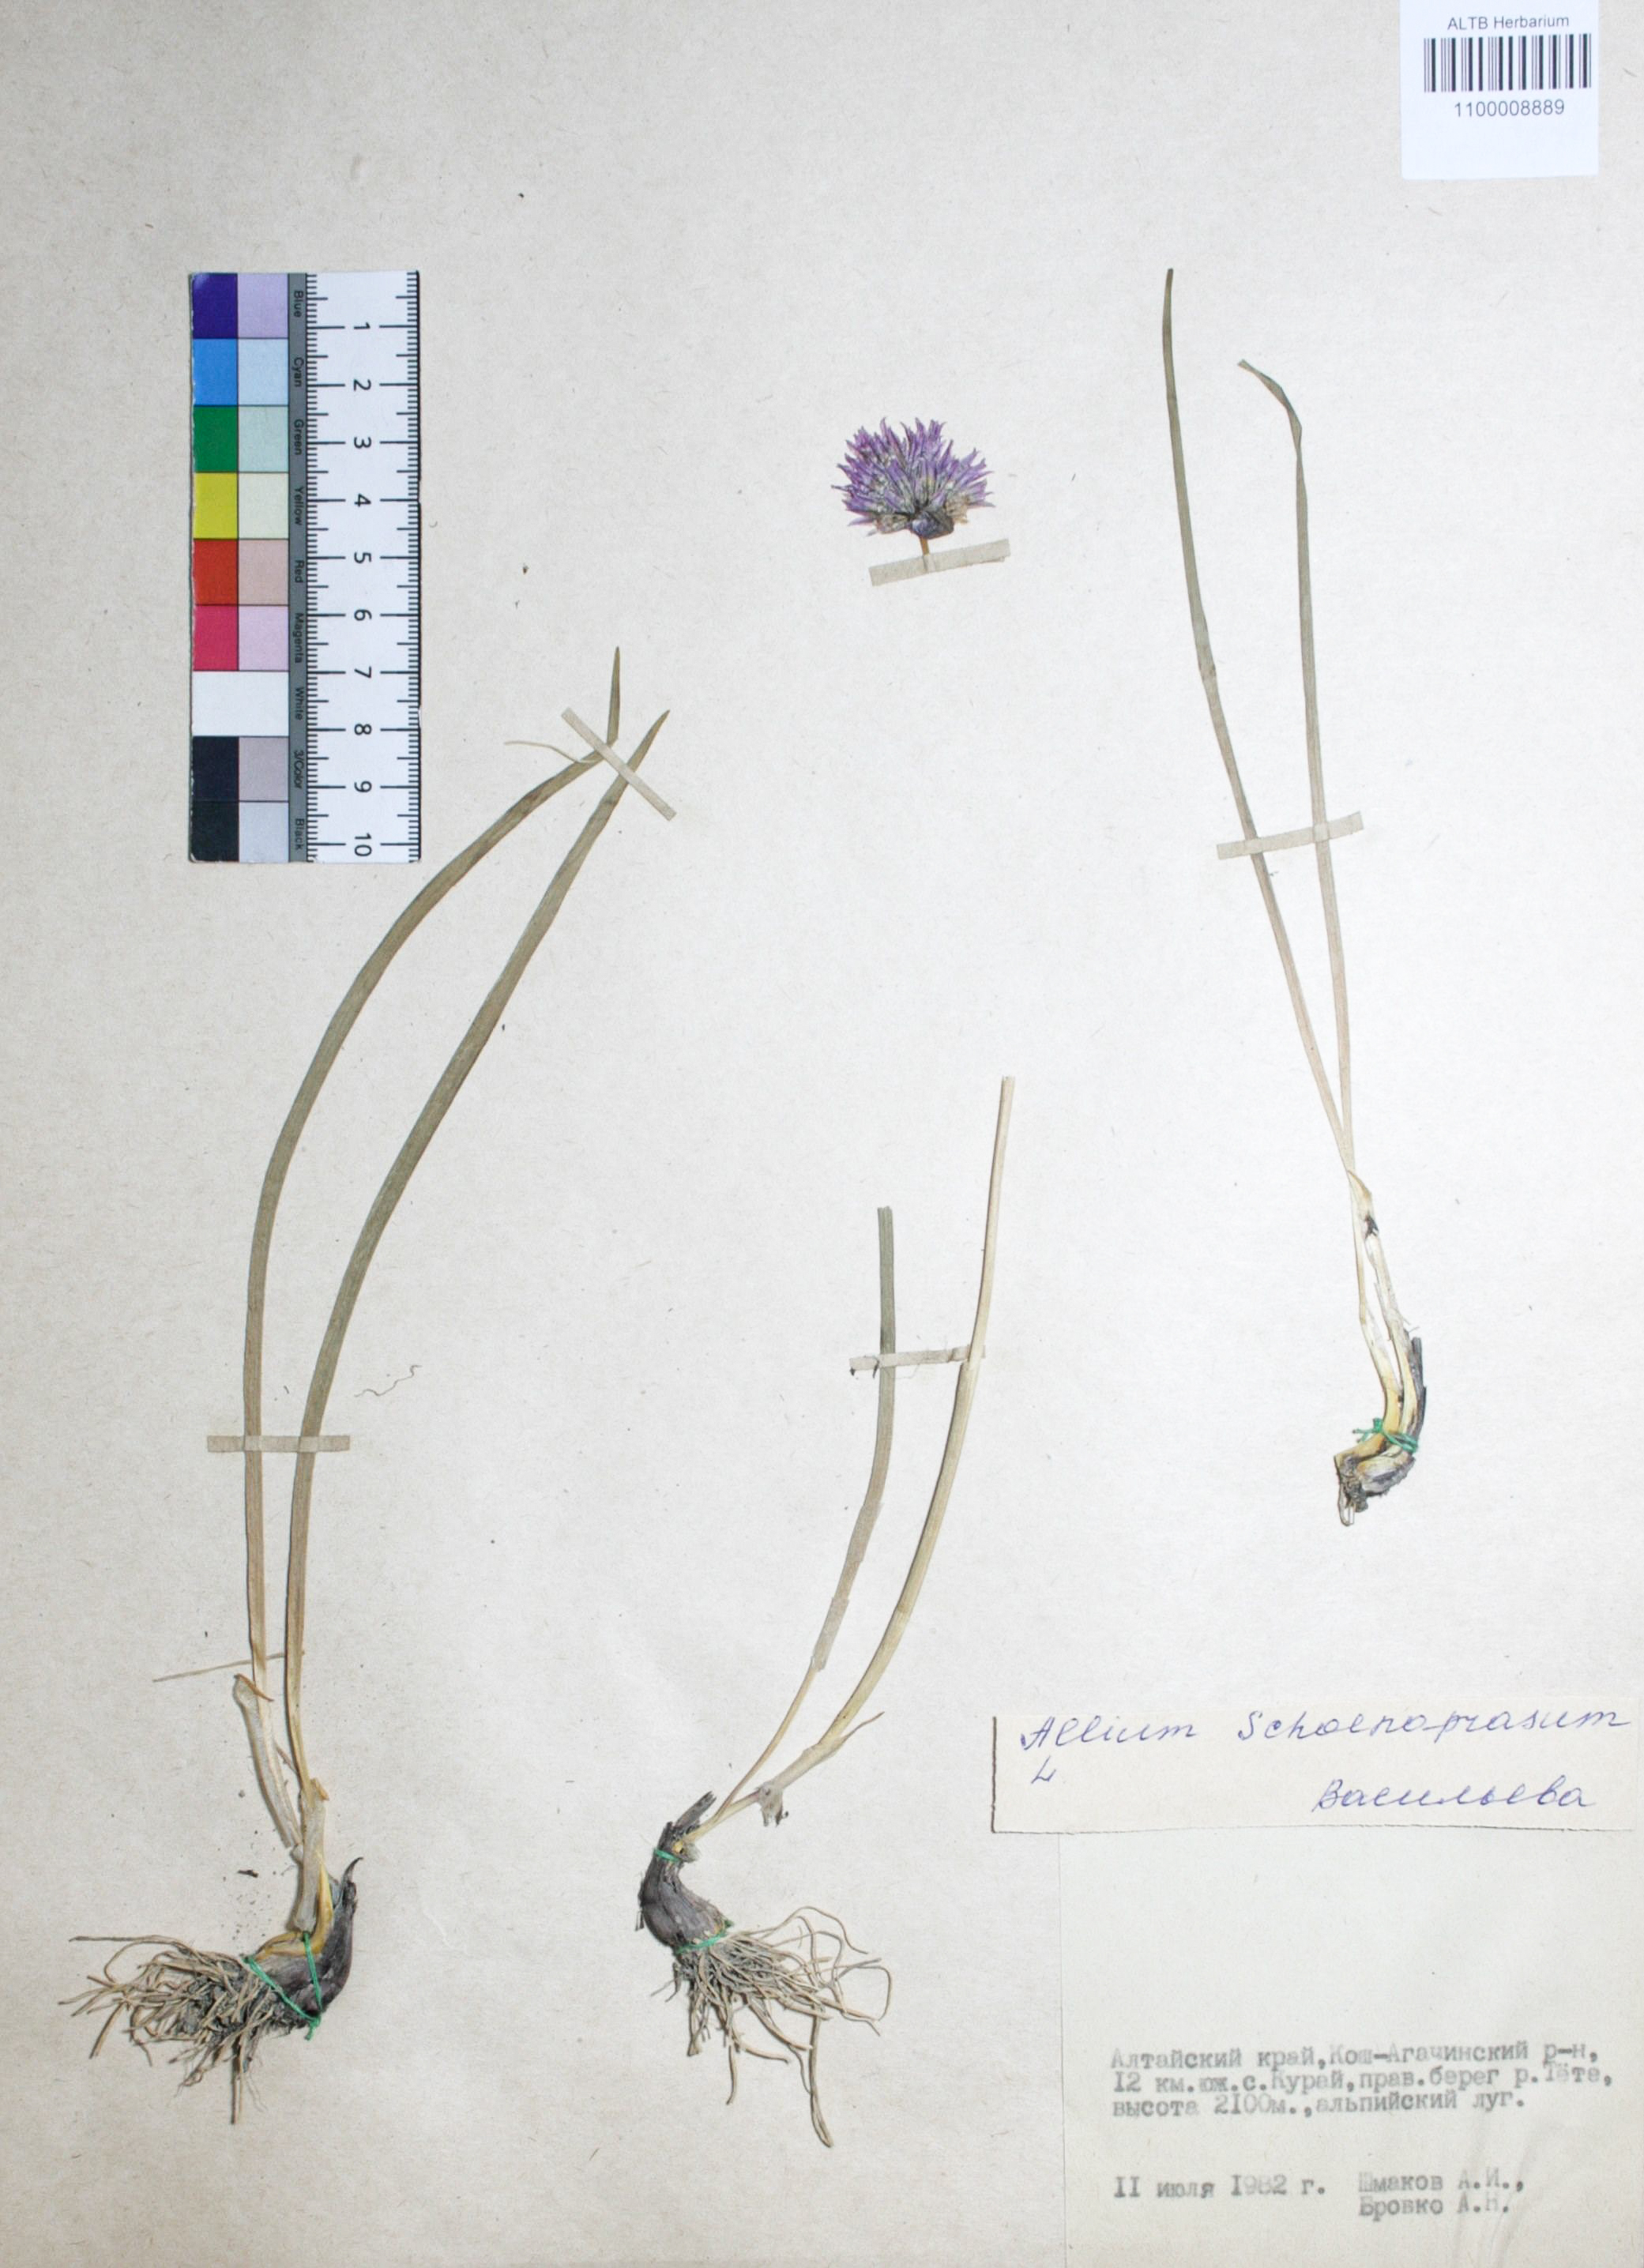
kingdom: Plantae
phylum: Tracheophyta
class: Liliopsida
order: Asparagales
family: Amaryllidaceae
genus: Allium
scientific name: Allium schoenoprasum
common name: Chives
